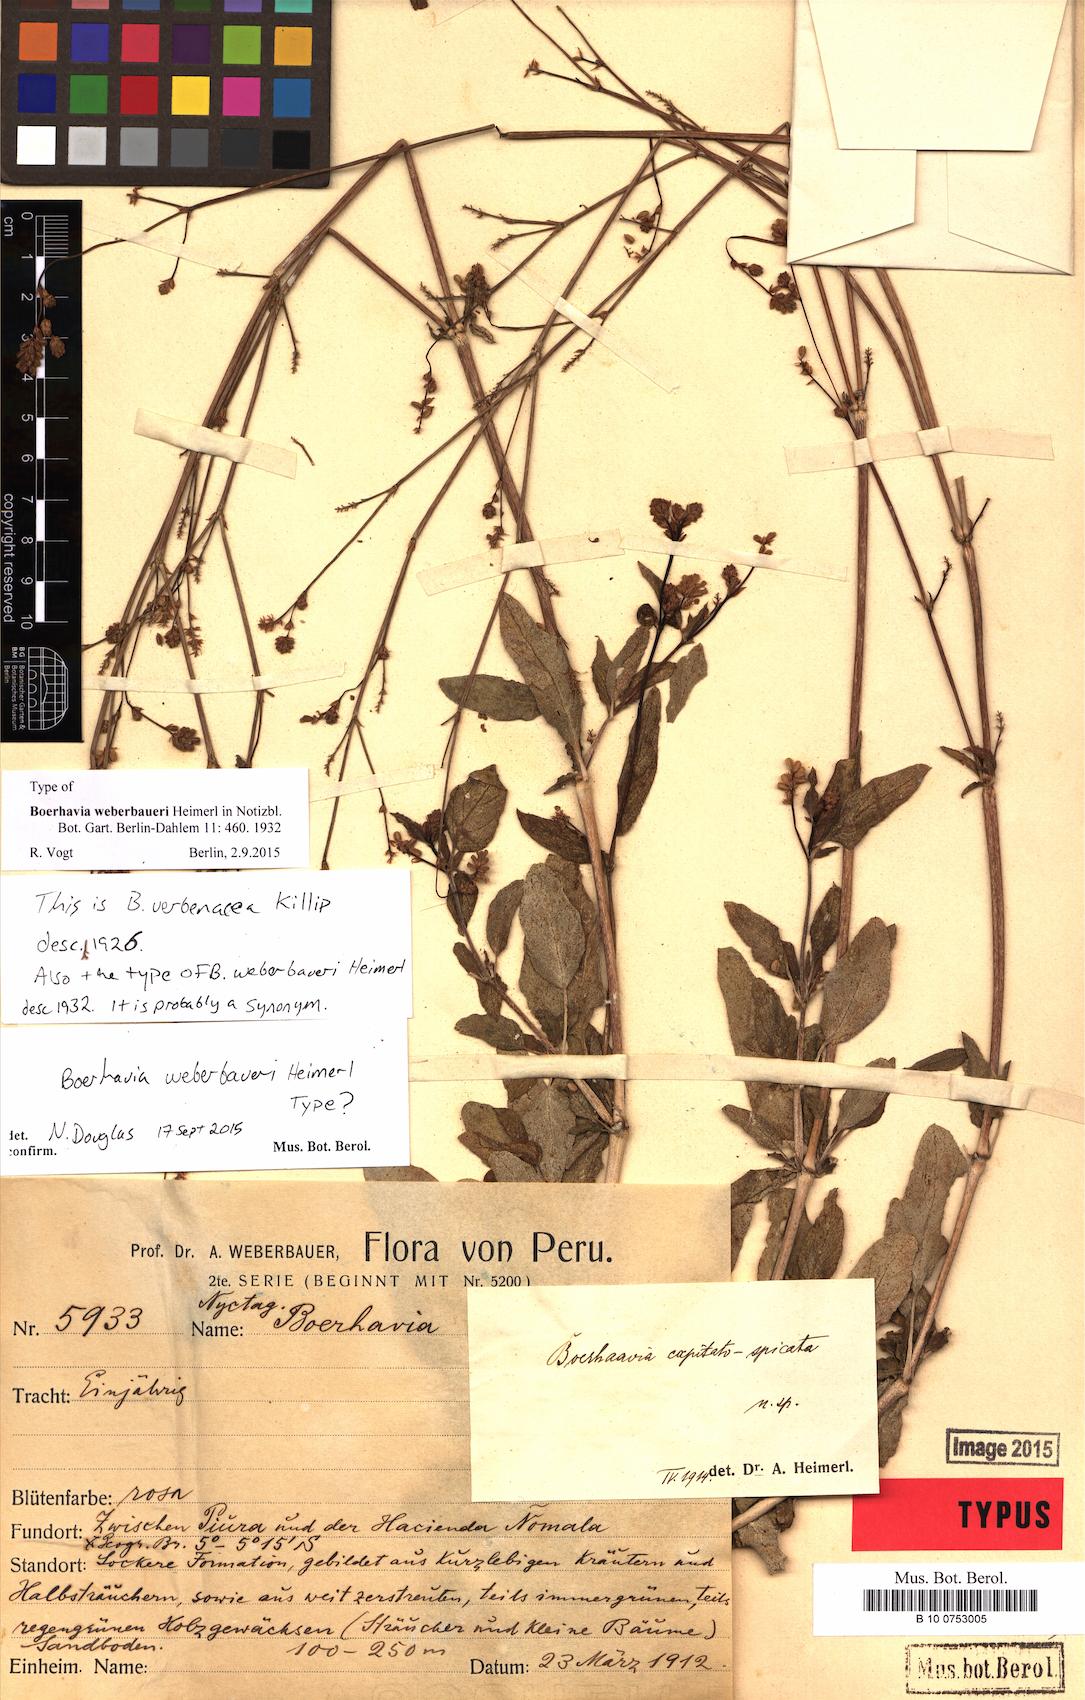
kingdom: Plantae
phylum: Tracheophyta
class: Magnoliopsida
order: Caryophyllales
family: Nyctaginaceae
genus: Boerhavia
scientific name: Boerhavia weberbaueri
